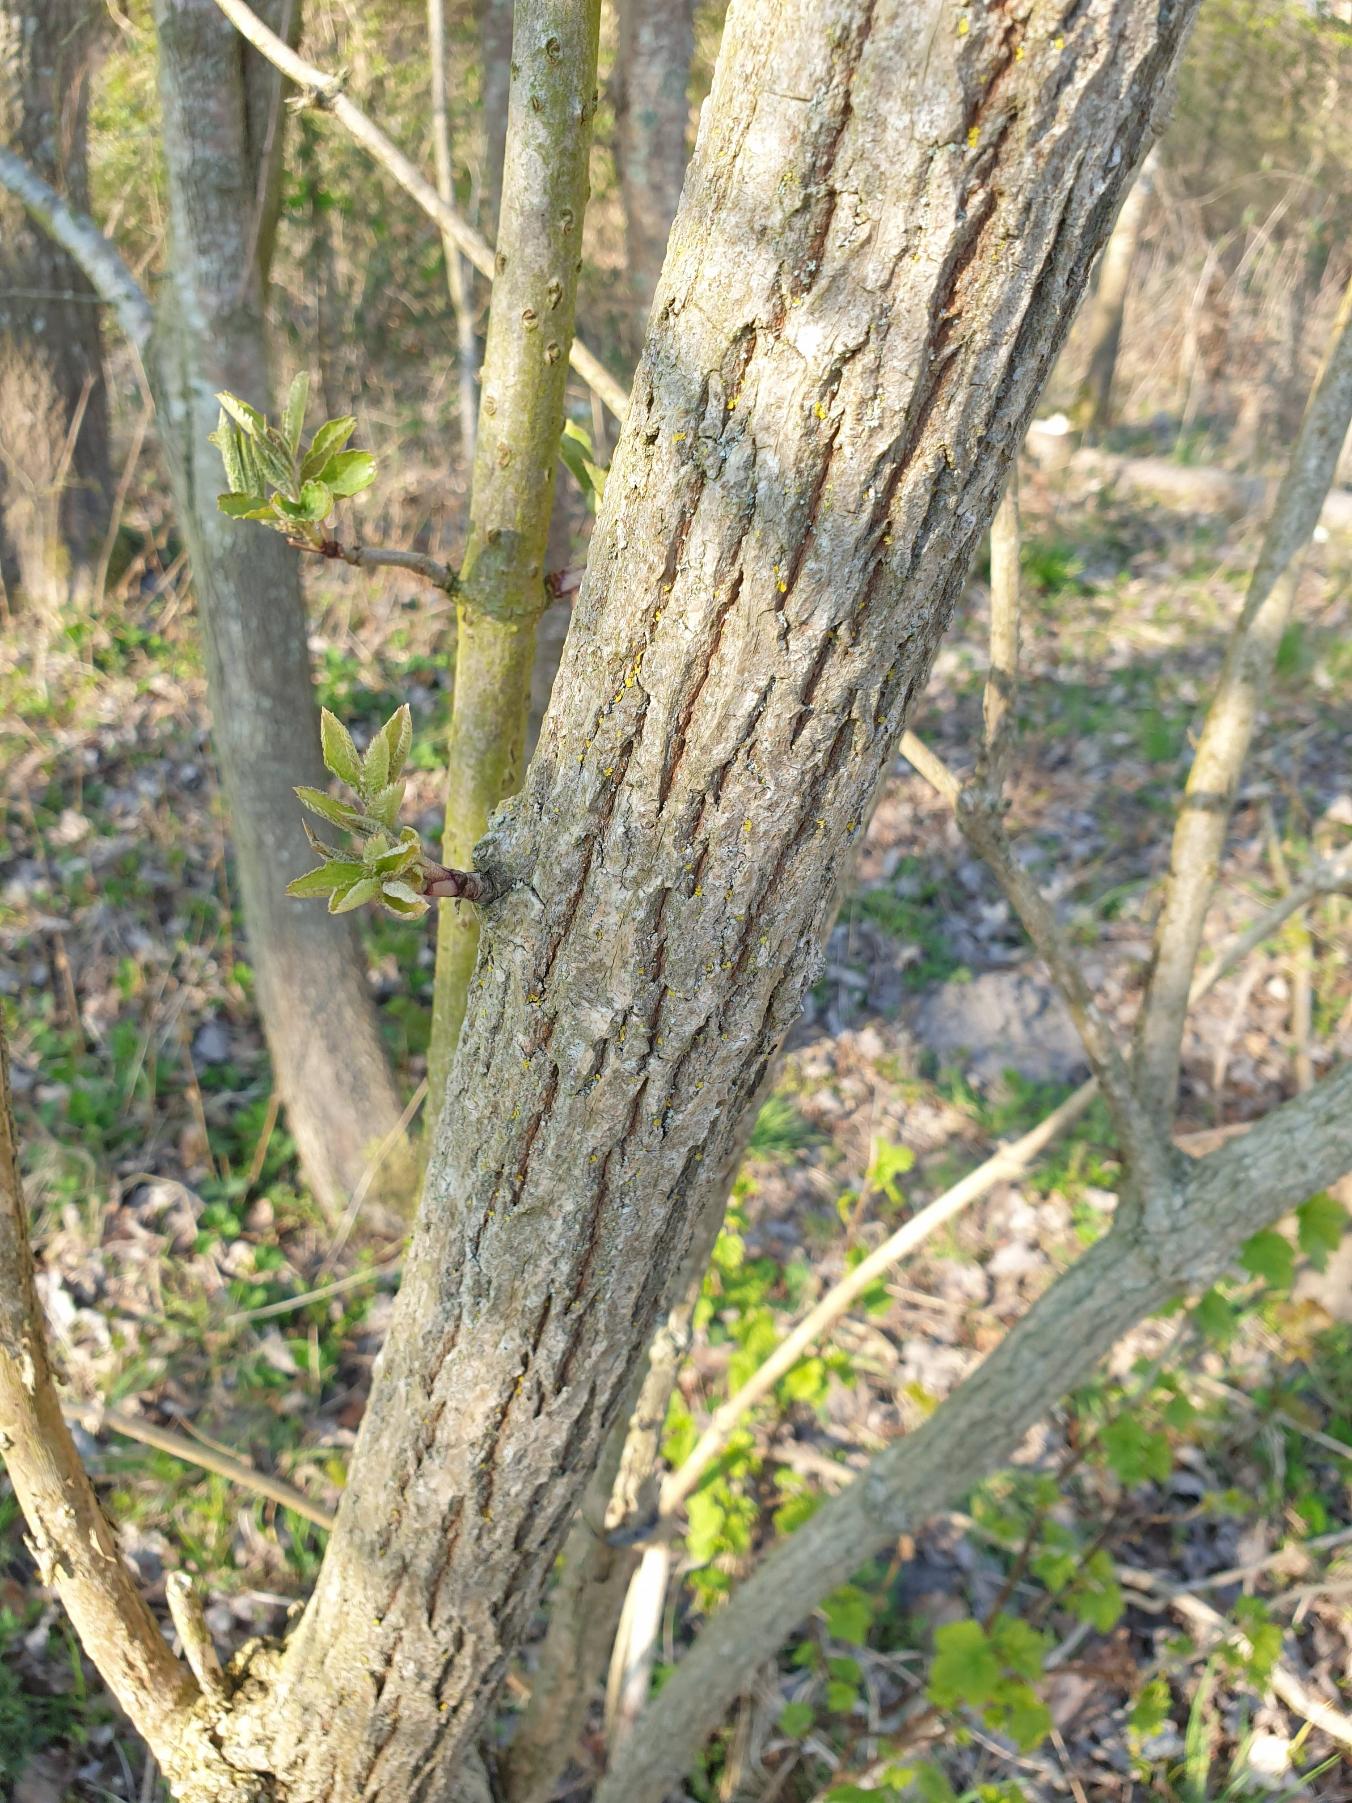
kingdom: Plantae
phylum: Tracheophyta
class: Magnoliopsida
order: Dipsacales
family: Viburnaceae
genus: Sambucus
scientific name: Sambucus nigra
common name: Almindelig hyld
